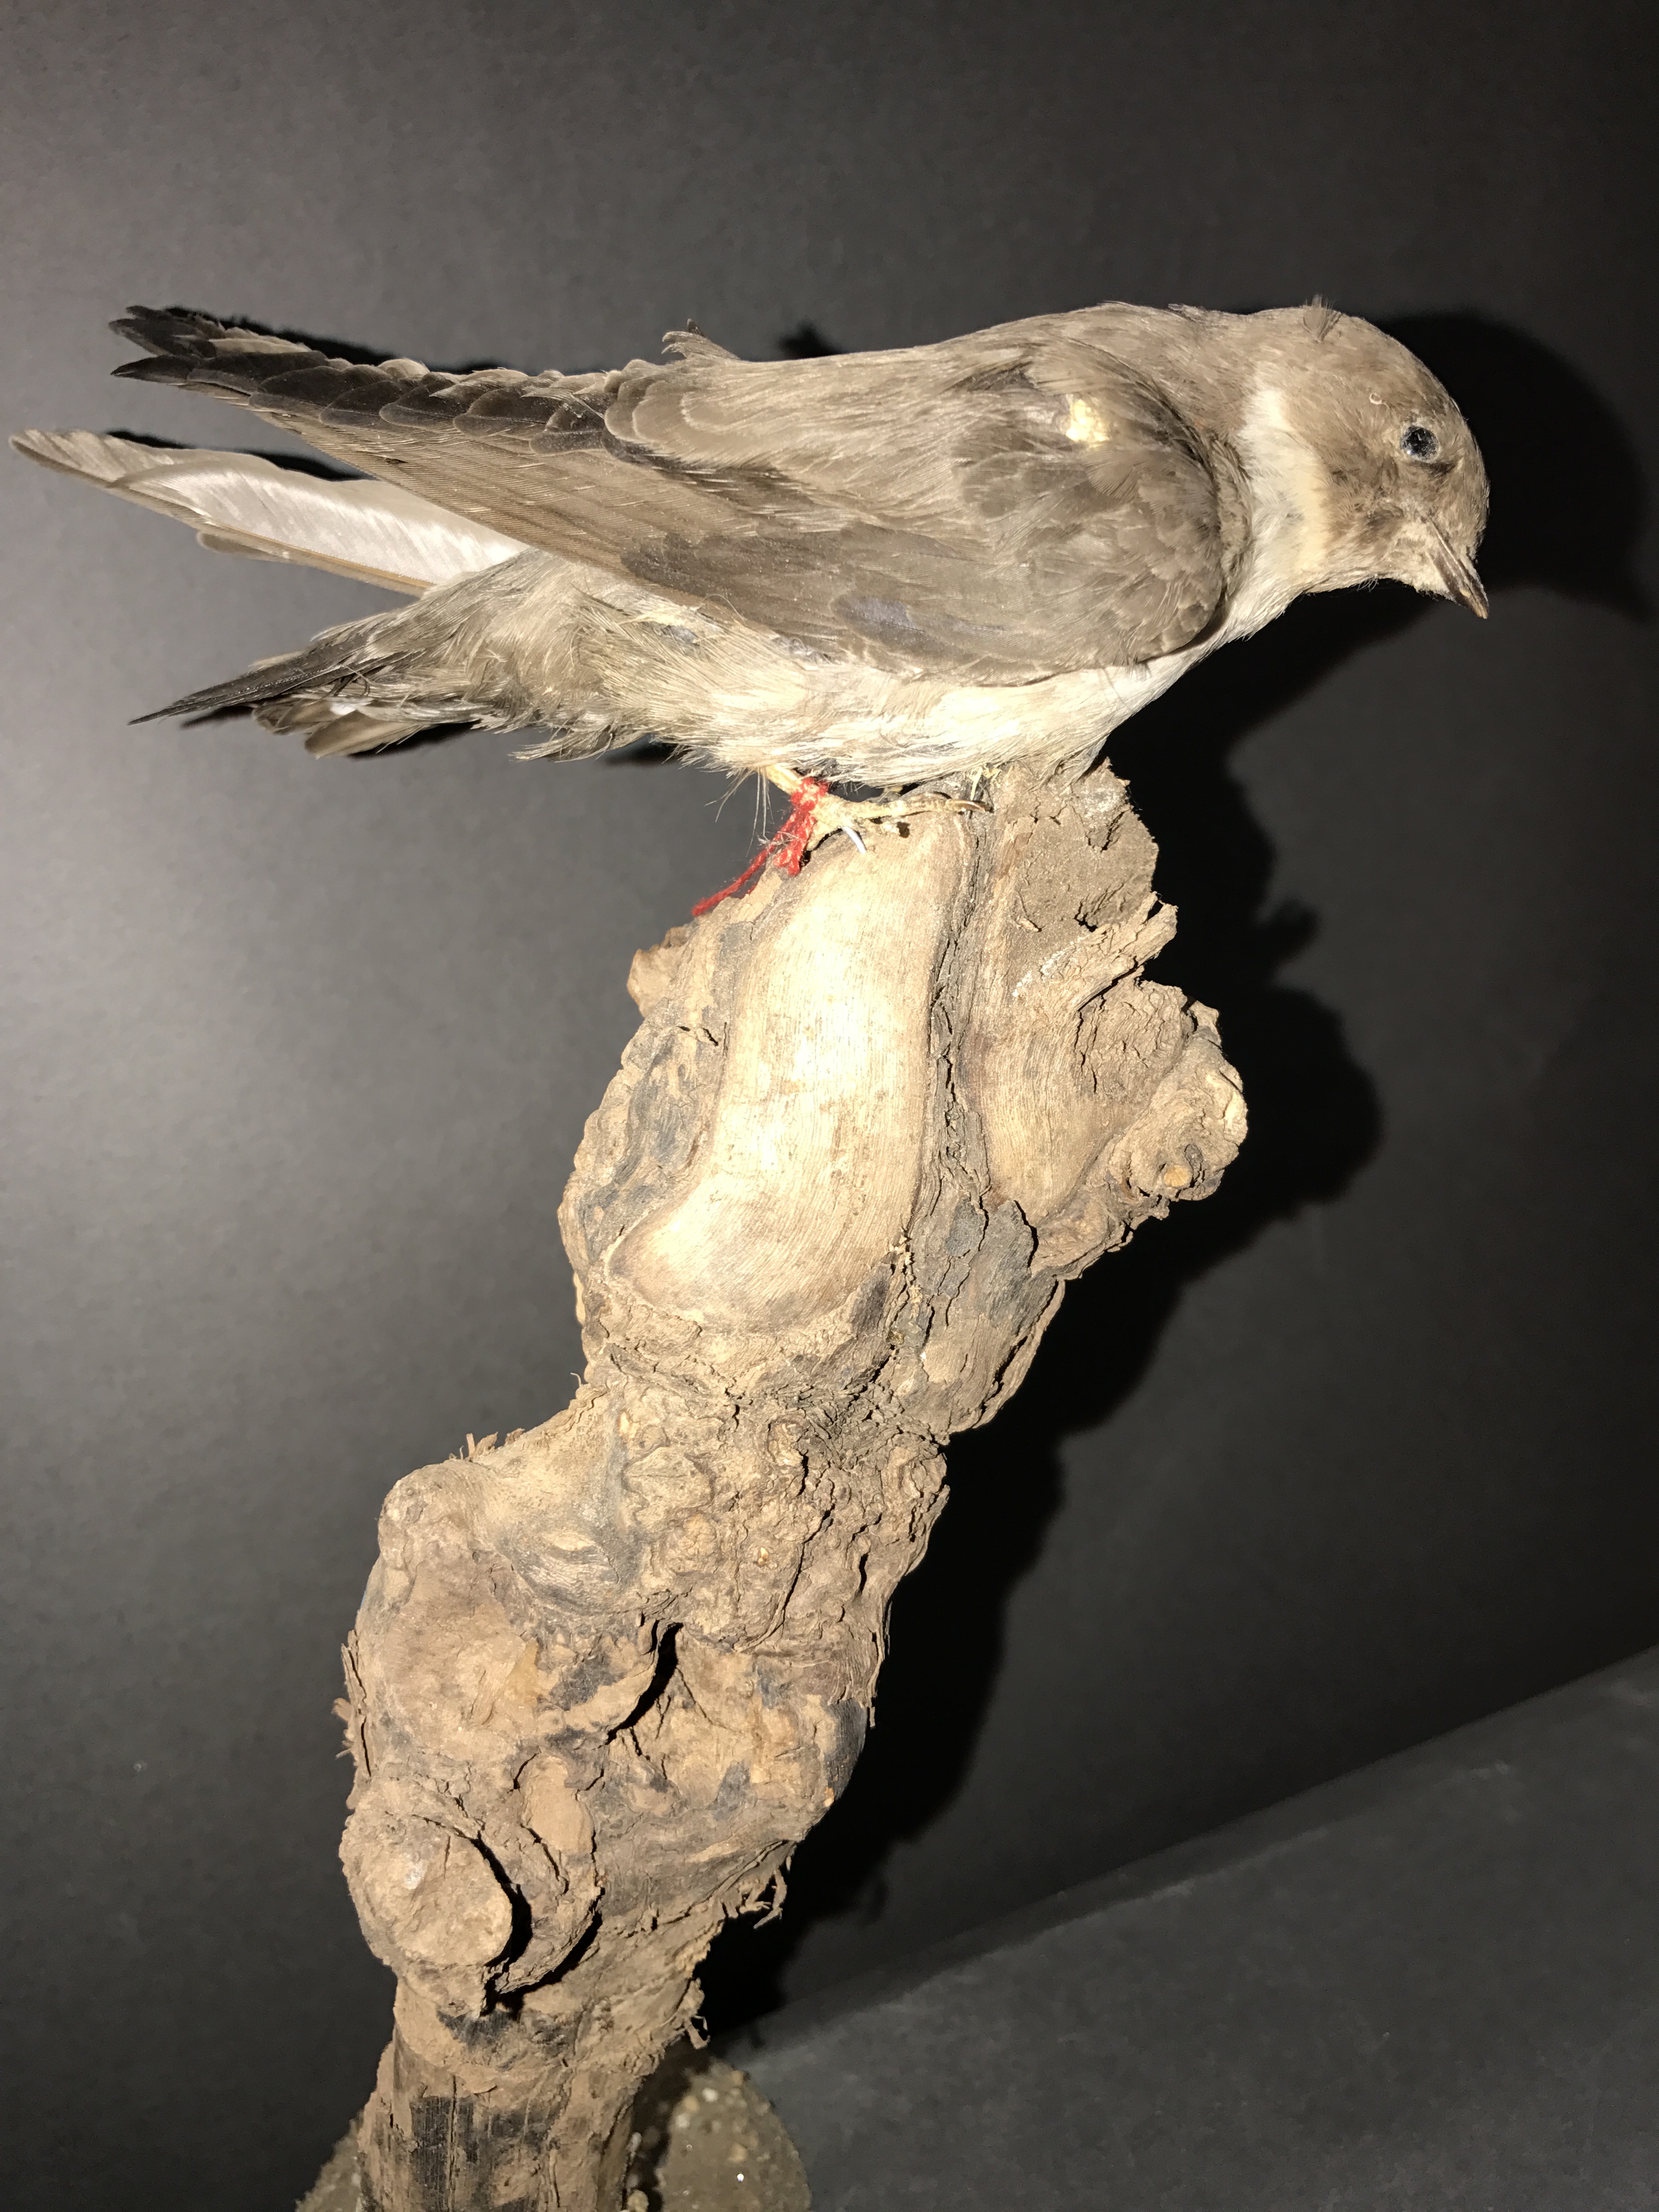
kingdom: Animalia
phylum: Chordata
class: Aves
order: Passeriformes
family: Hirundinidae
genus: Ptyonoprogne
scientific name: Ptyonoprogne rupestris
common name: Eurasian crag martin
